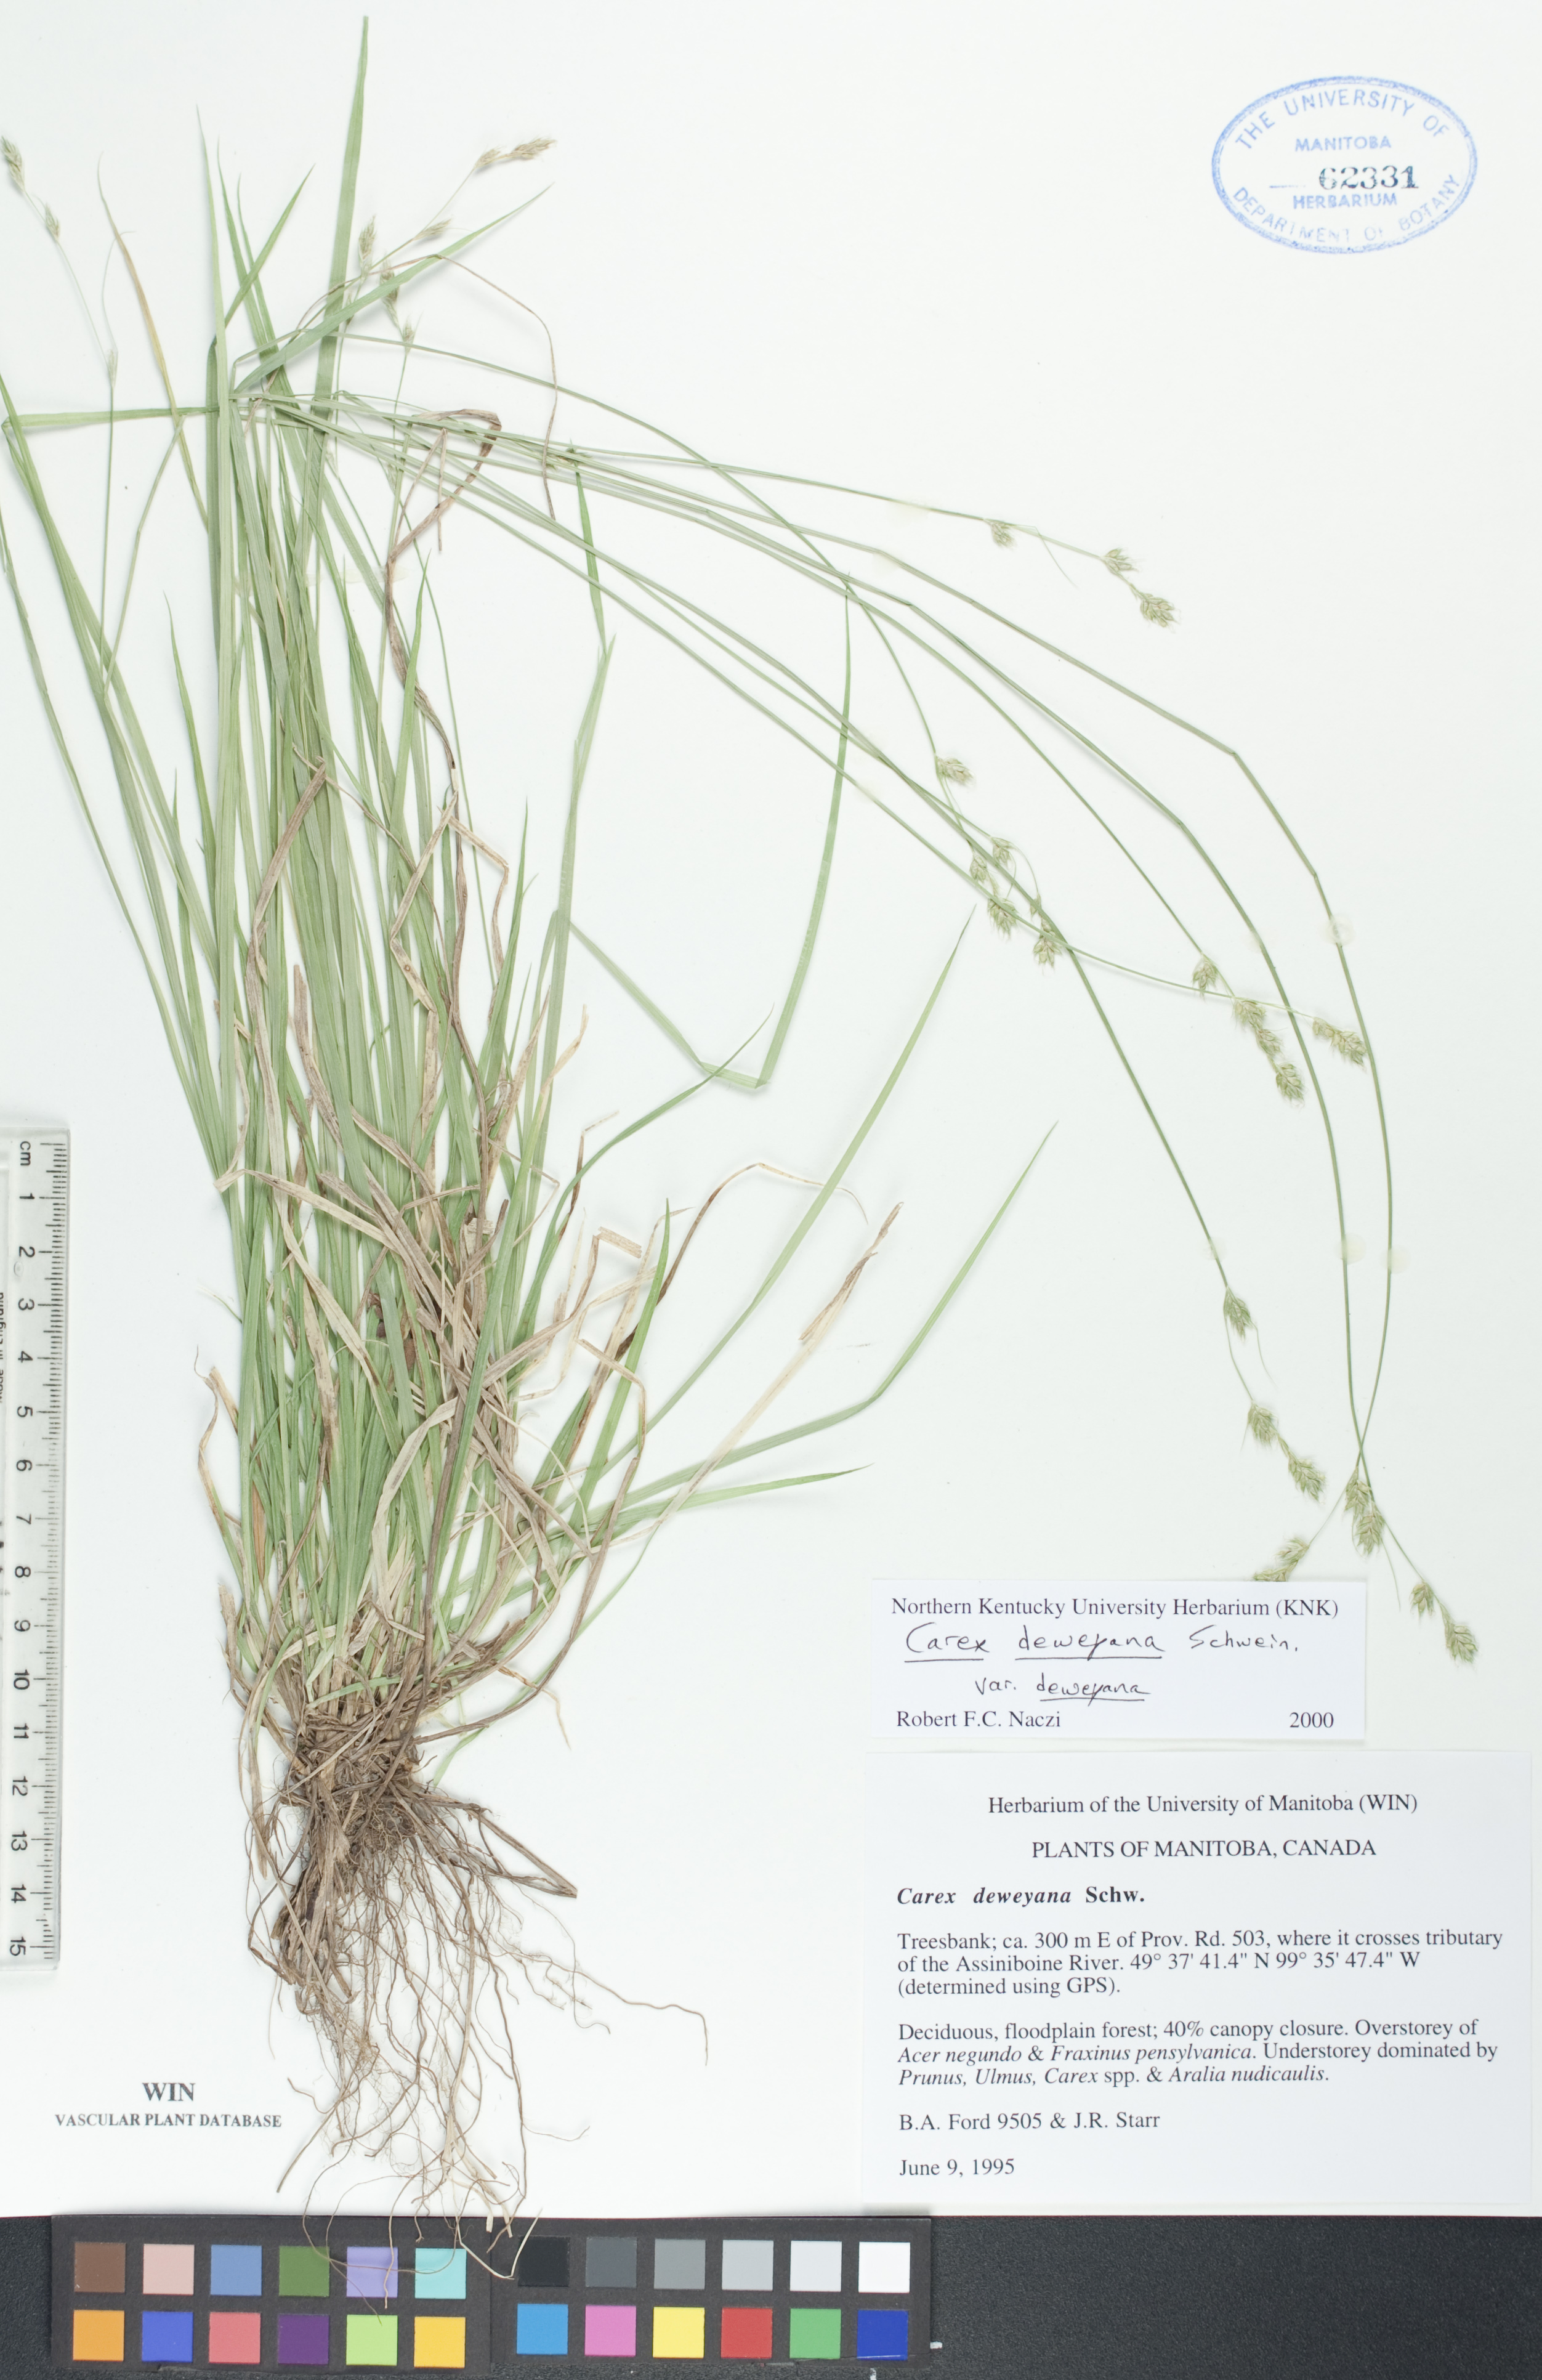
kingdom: Plantae
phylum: Tracheophyta
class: Liliopsida
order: Poales
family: Cyperaceae
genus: Carex
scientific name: Carex deweyana
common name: Dewey's sedge
